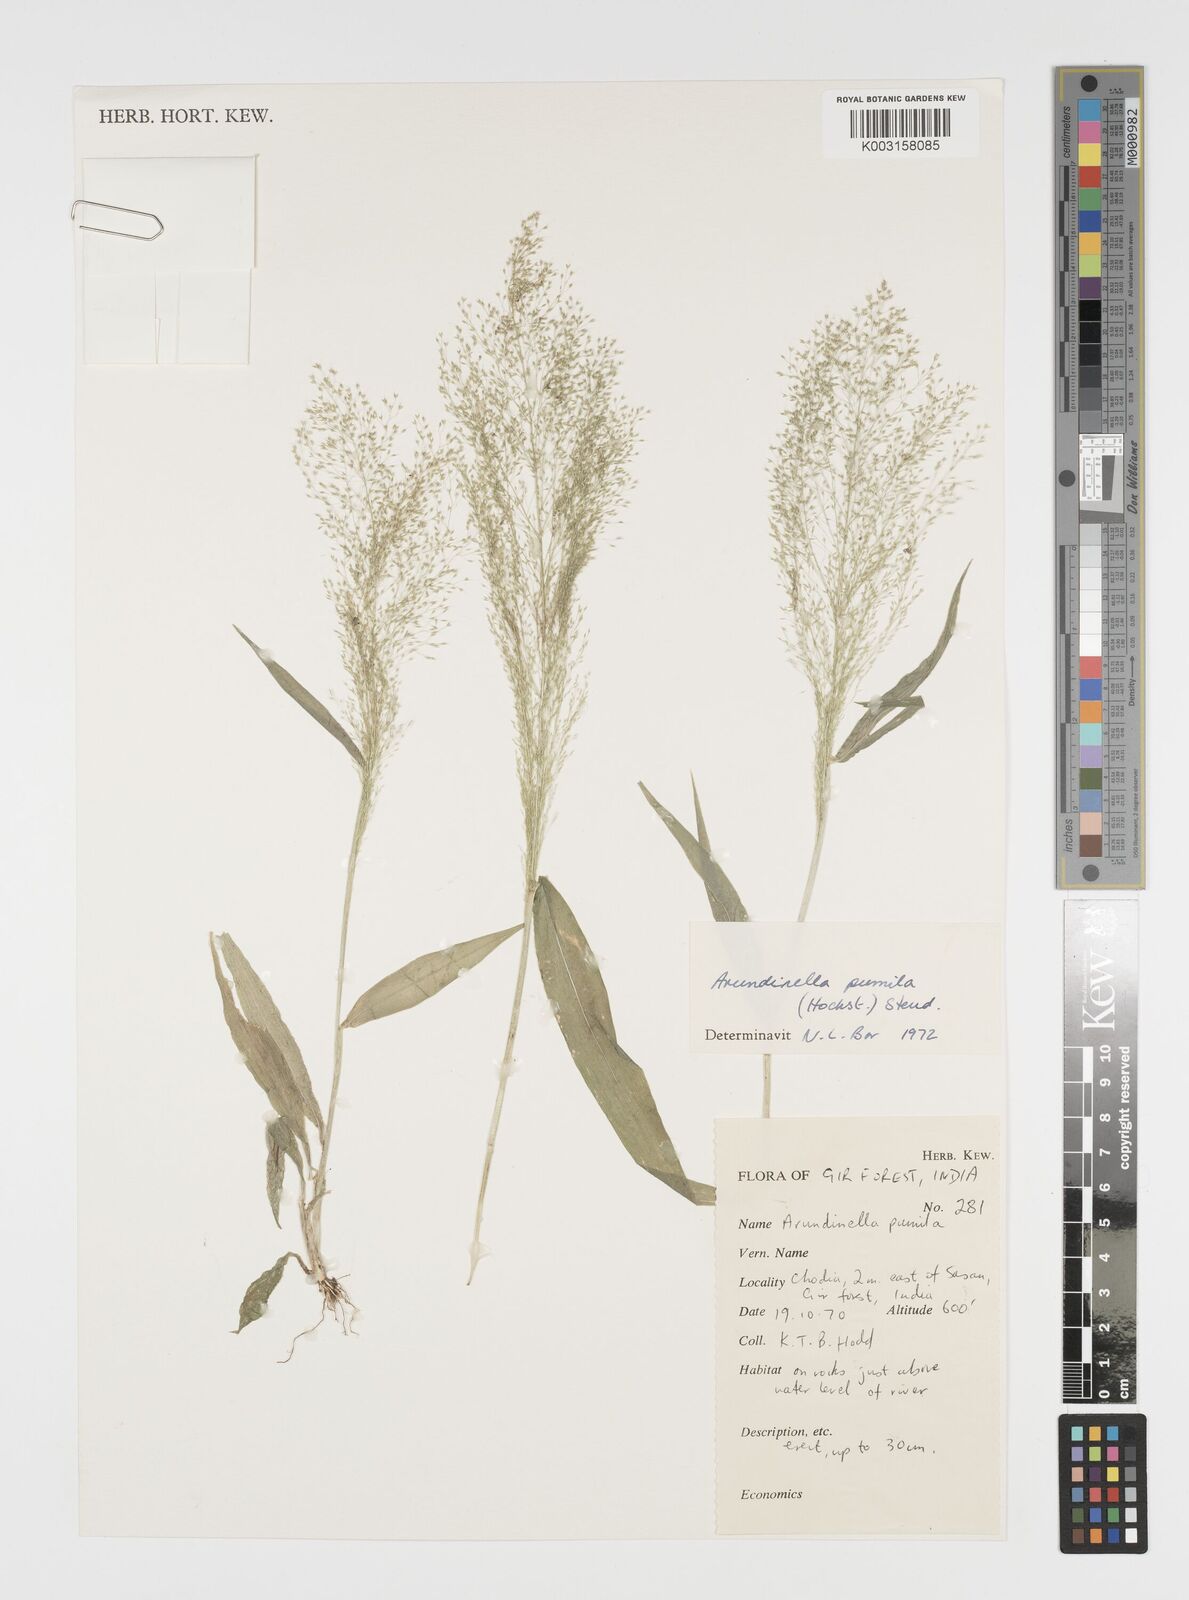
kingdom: Plantae
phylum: Tracheophyta
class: Liliopsida
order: Poales
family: Poaceae
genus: Arundinella
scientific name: Arundinella pumila
